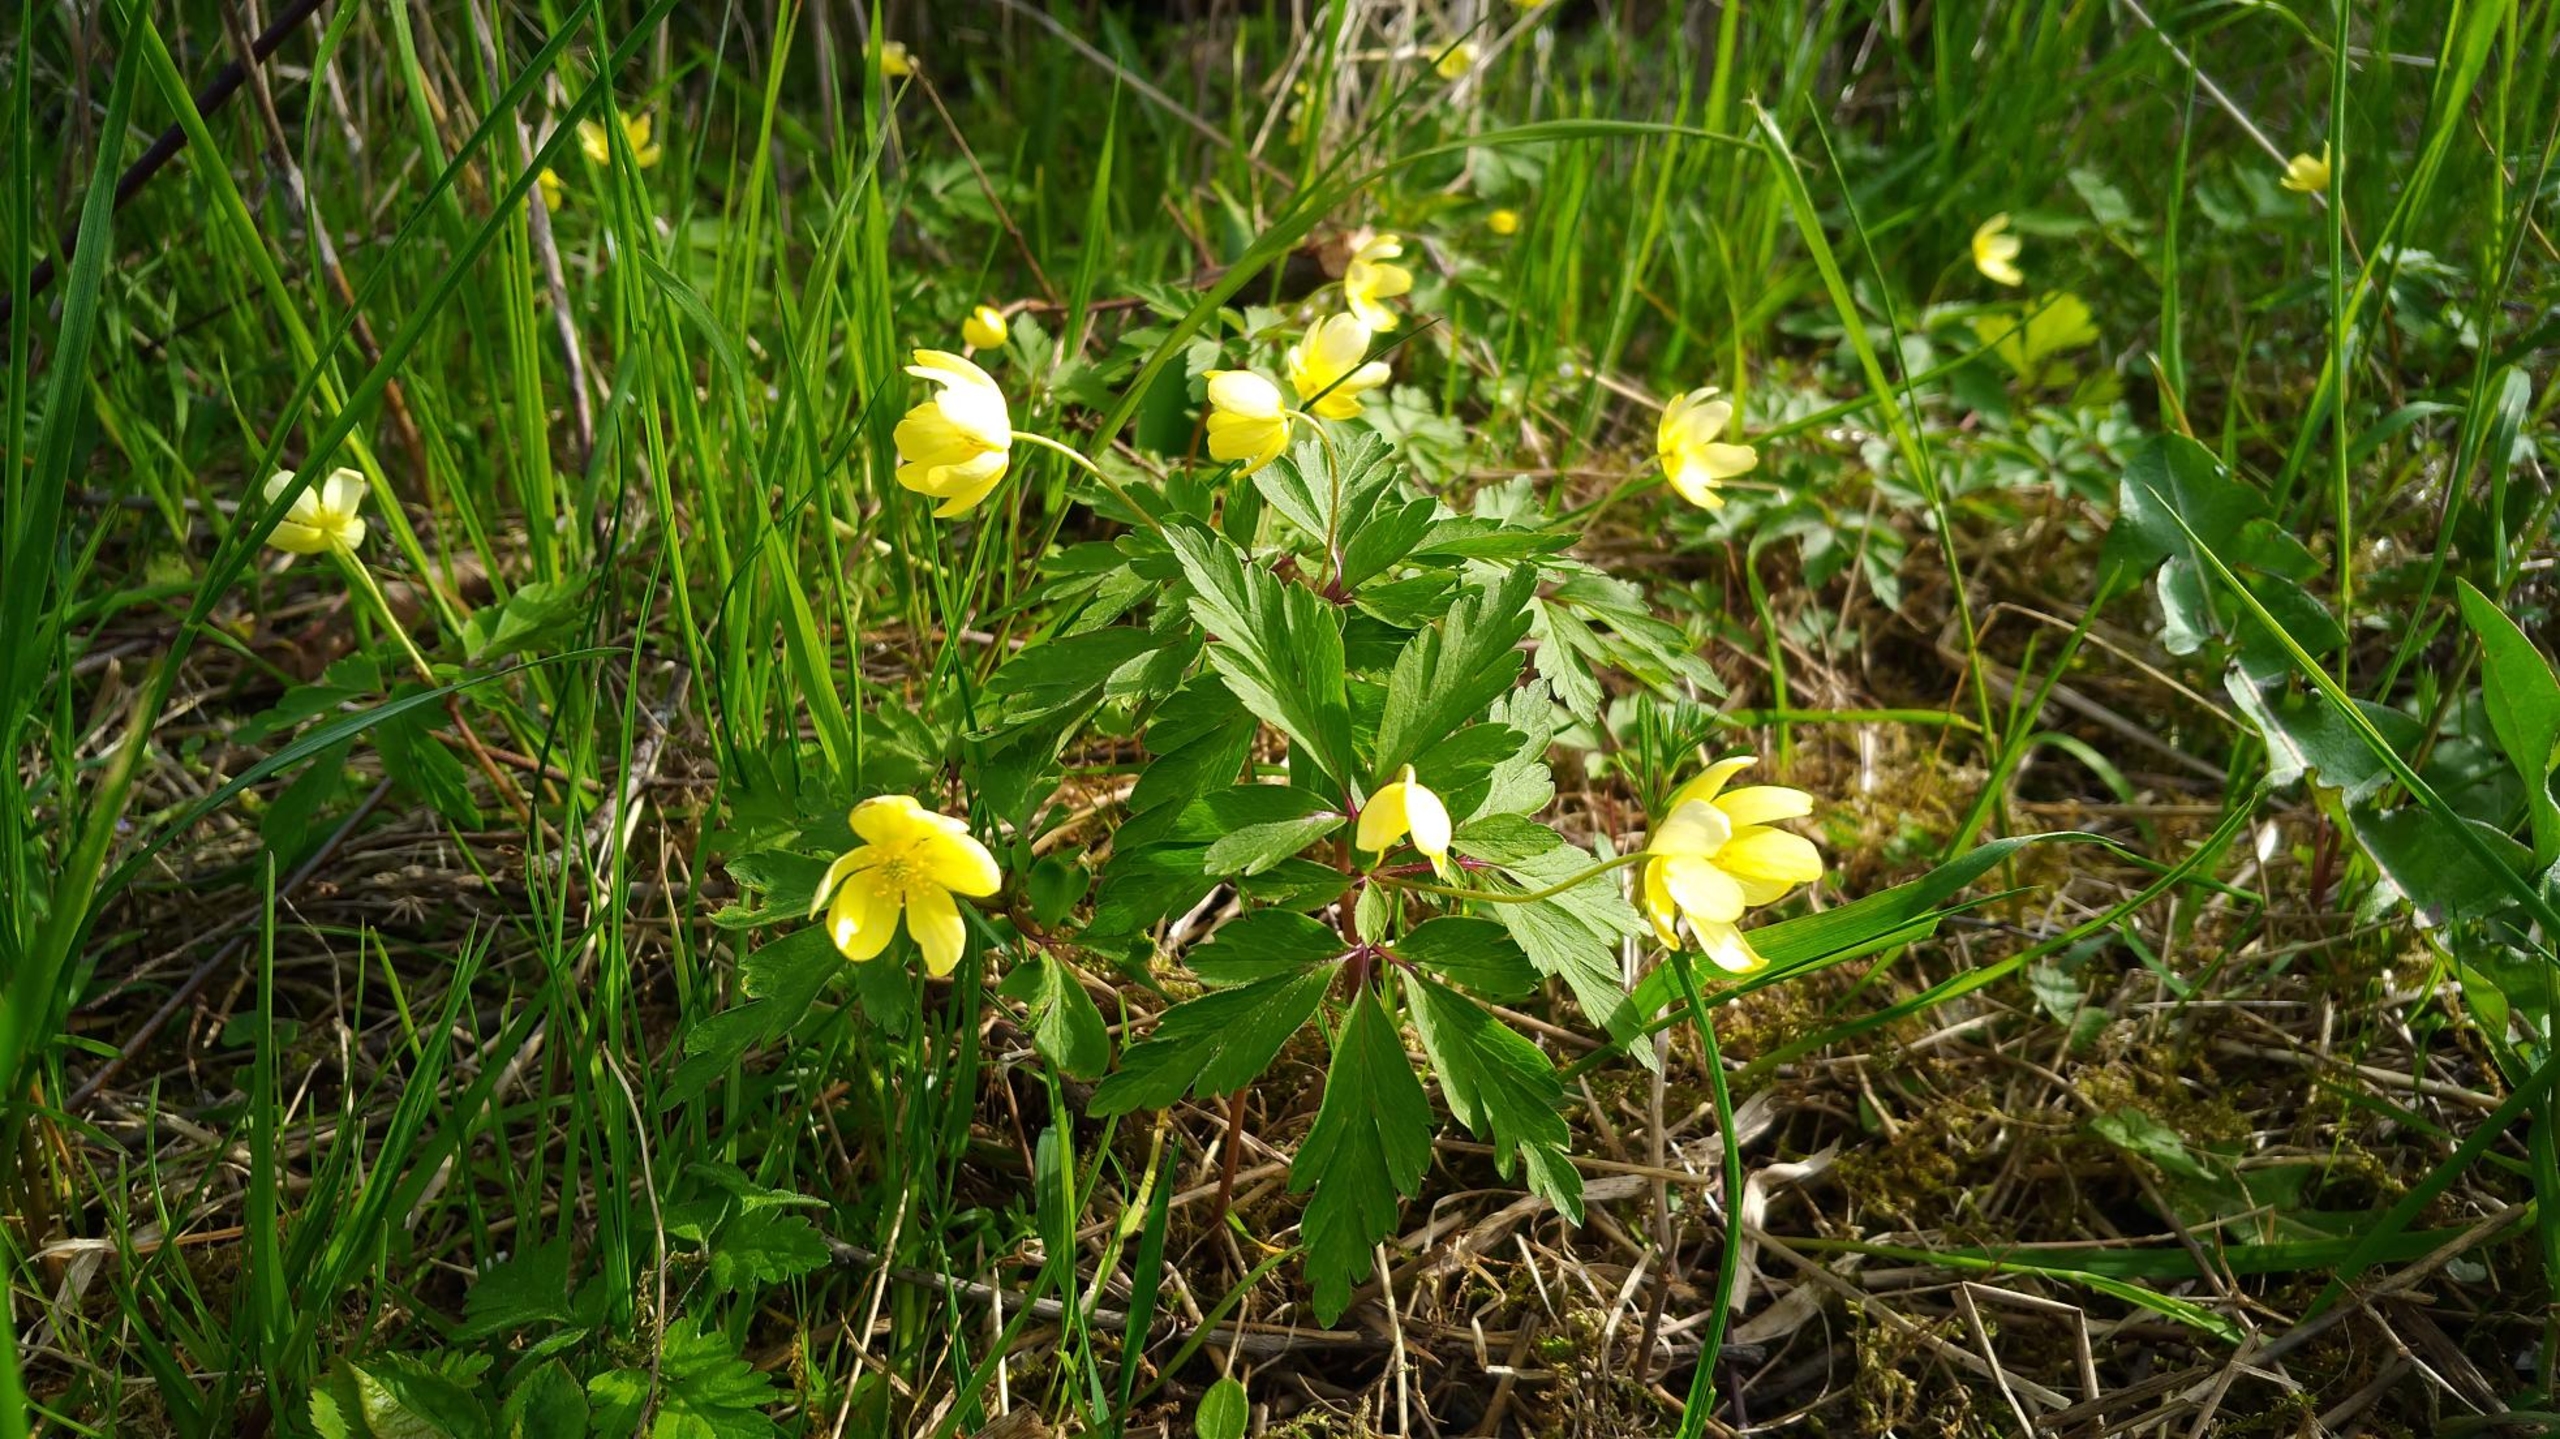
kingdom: Plantae
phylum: Tracheophyta
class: Magnoliopsida
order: Ranunculales
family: Ranunculaceae
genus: Anemone
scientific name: Anemone
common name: Svovlgul anemone
